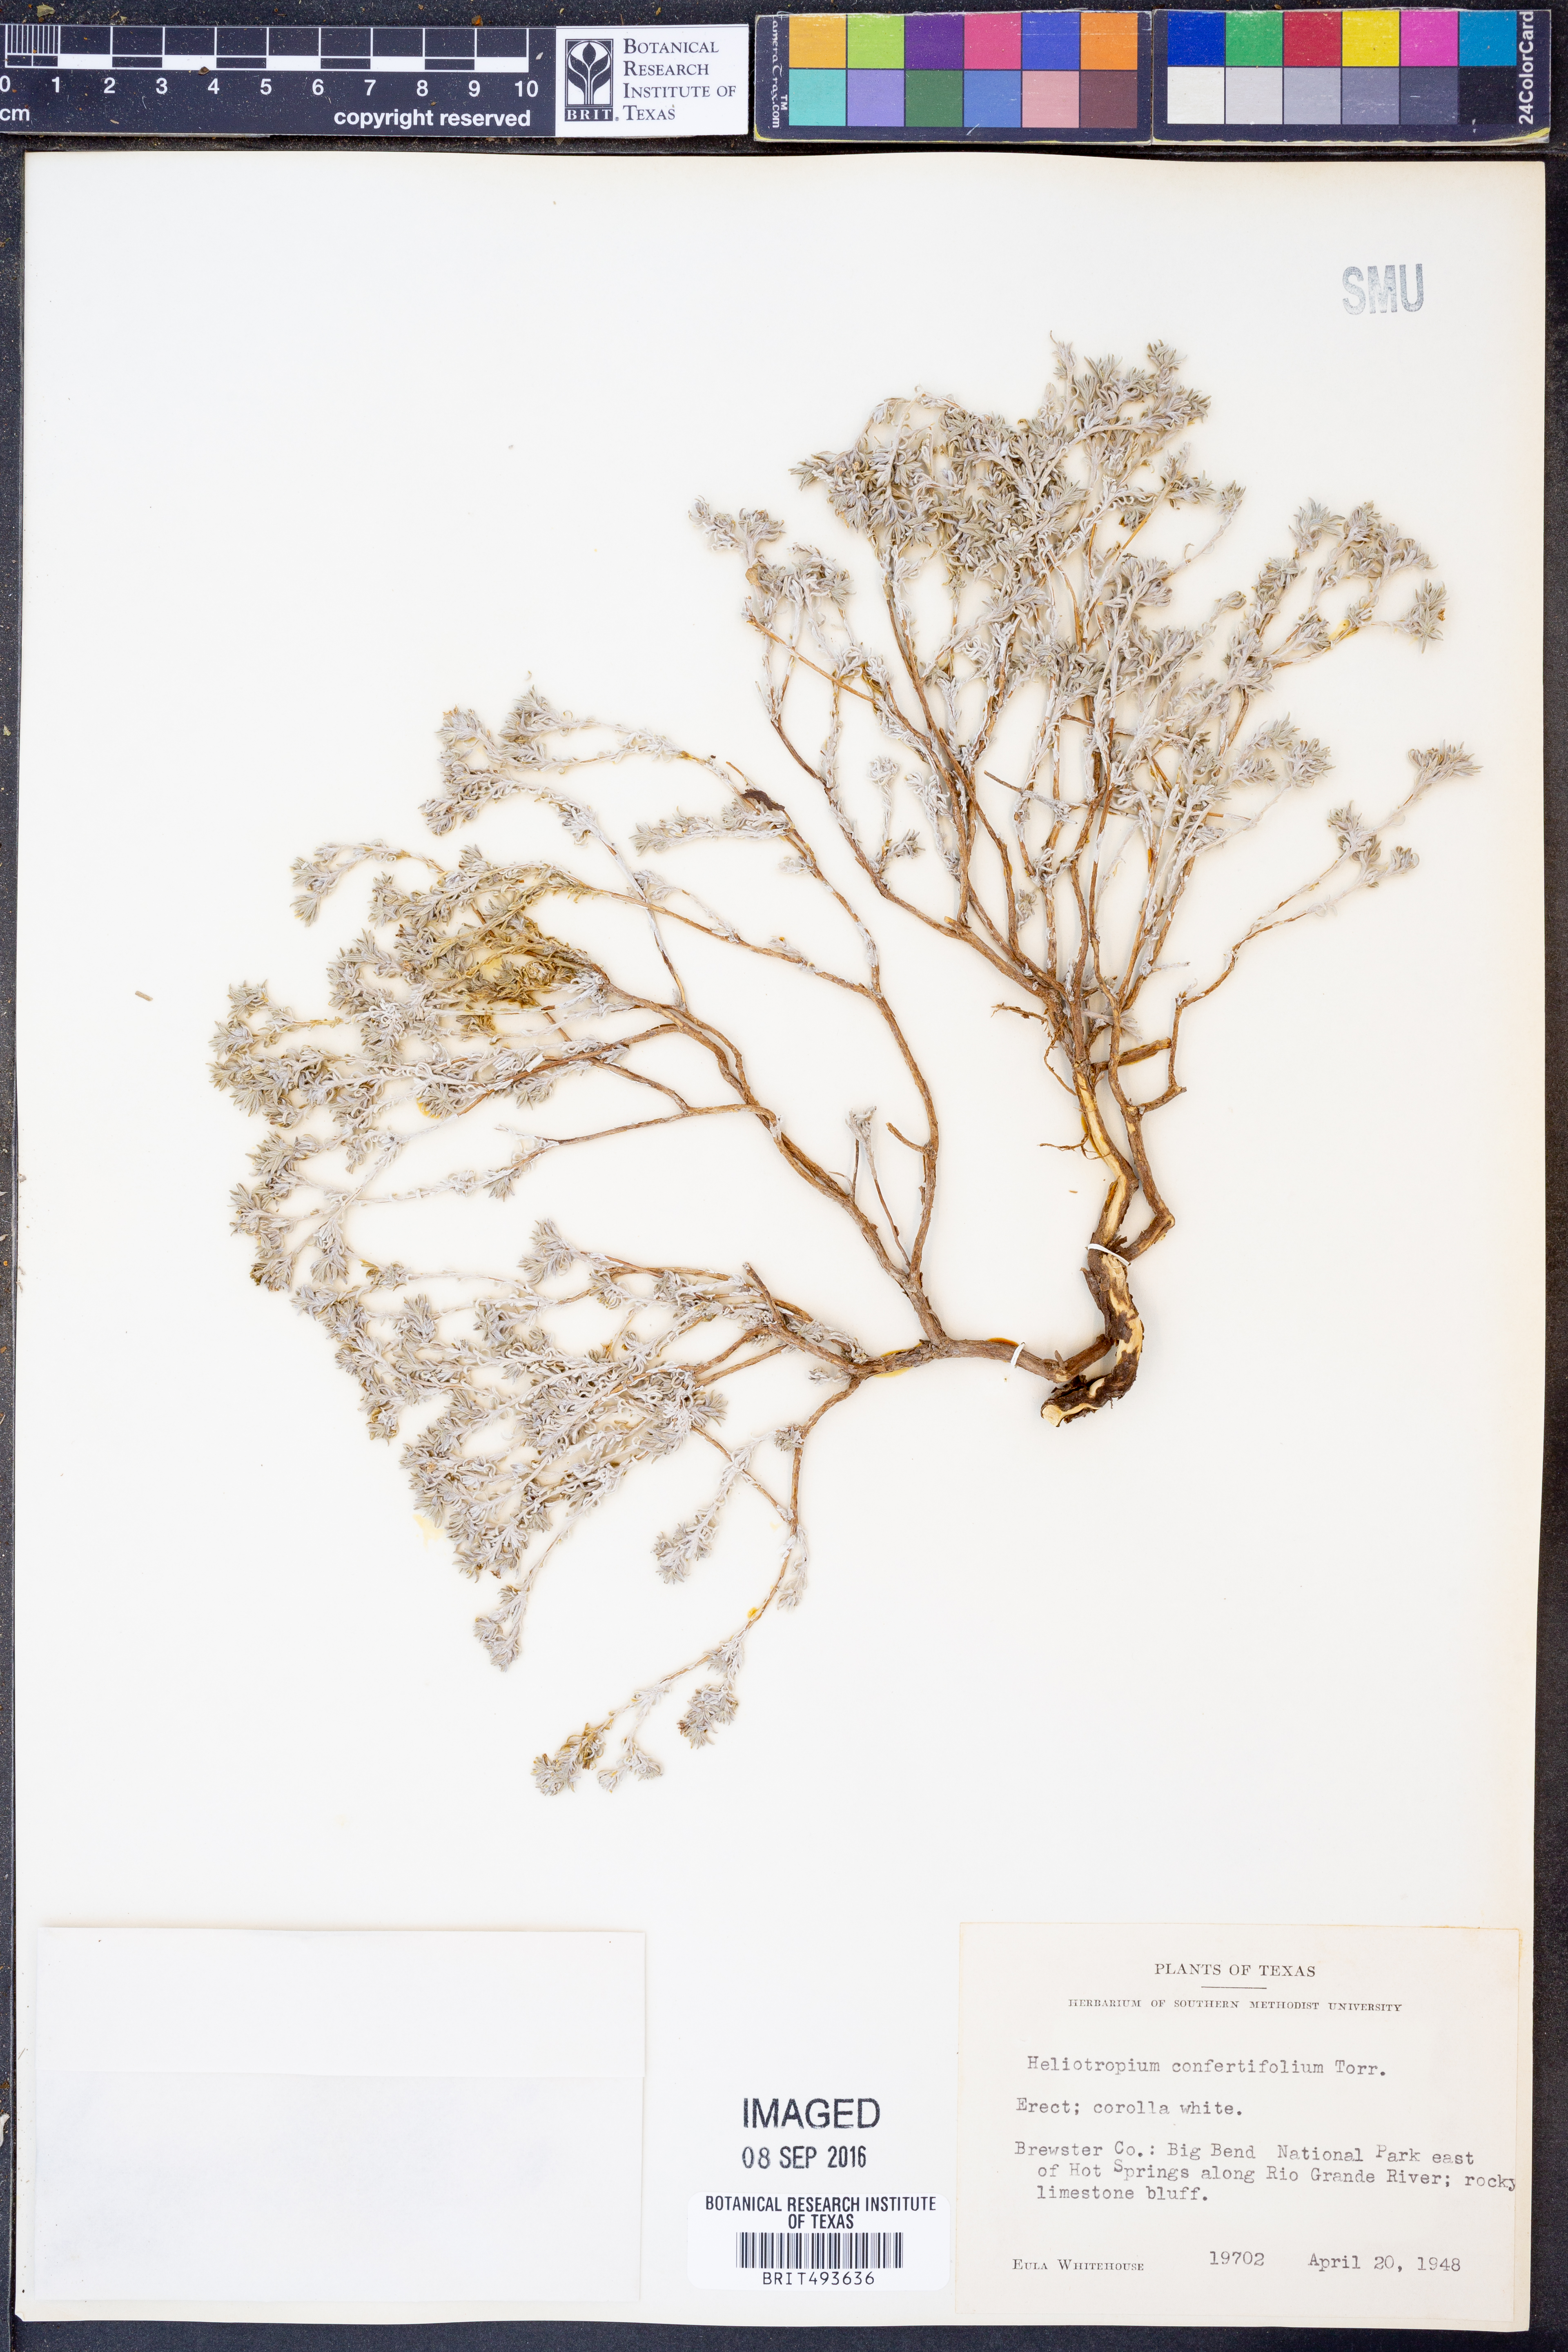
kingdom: Plantae
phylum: Tracheophyta
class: Magnoliopsida
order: Boraginales
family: Heliotropiaceae
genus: Euploca
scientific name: Euploca confertifolia
